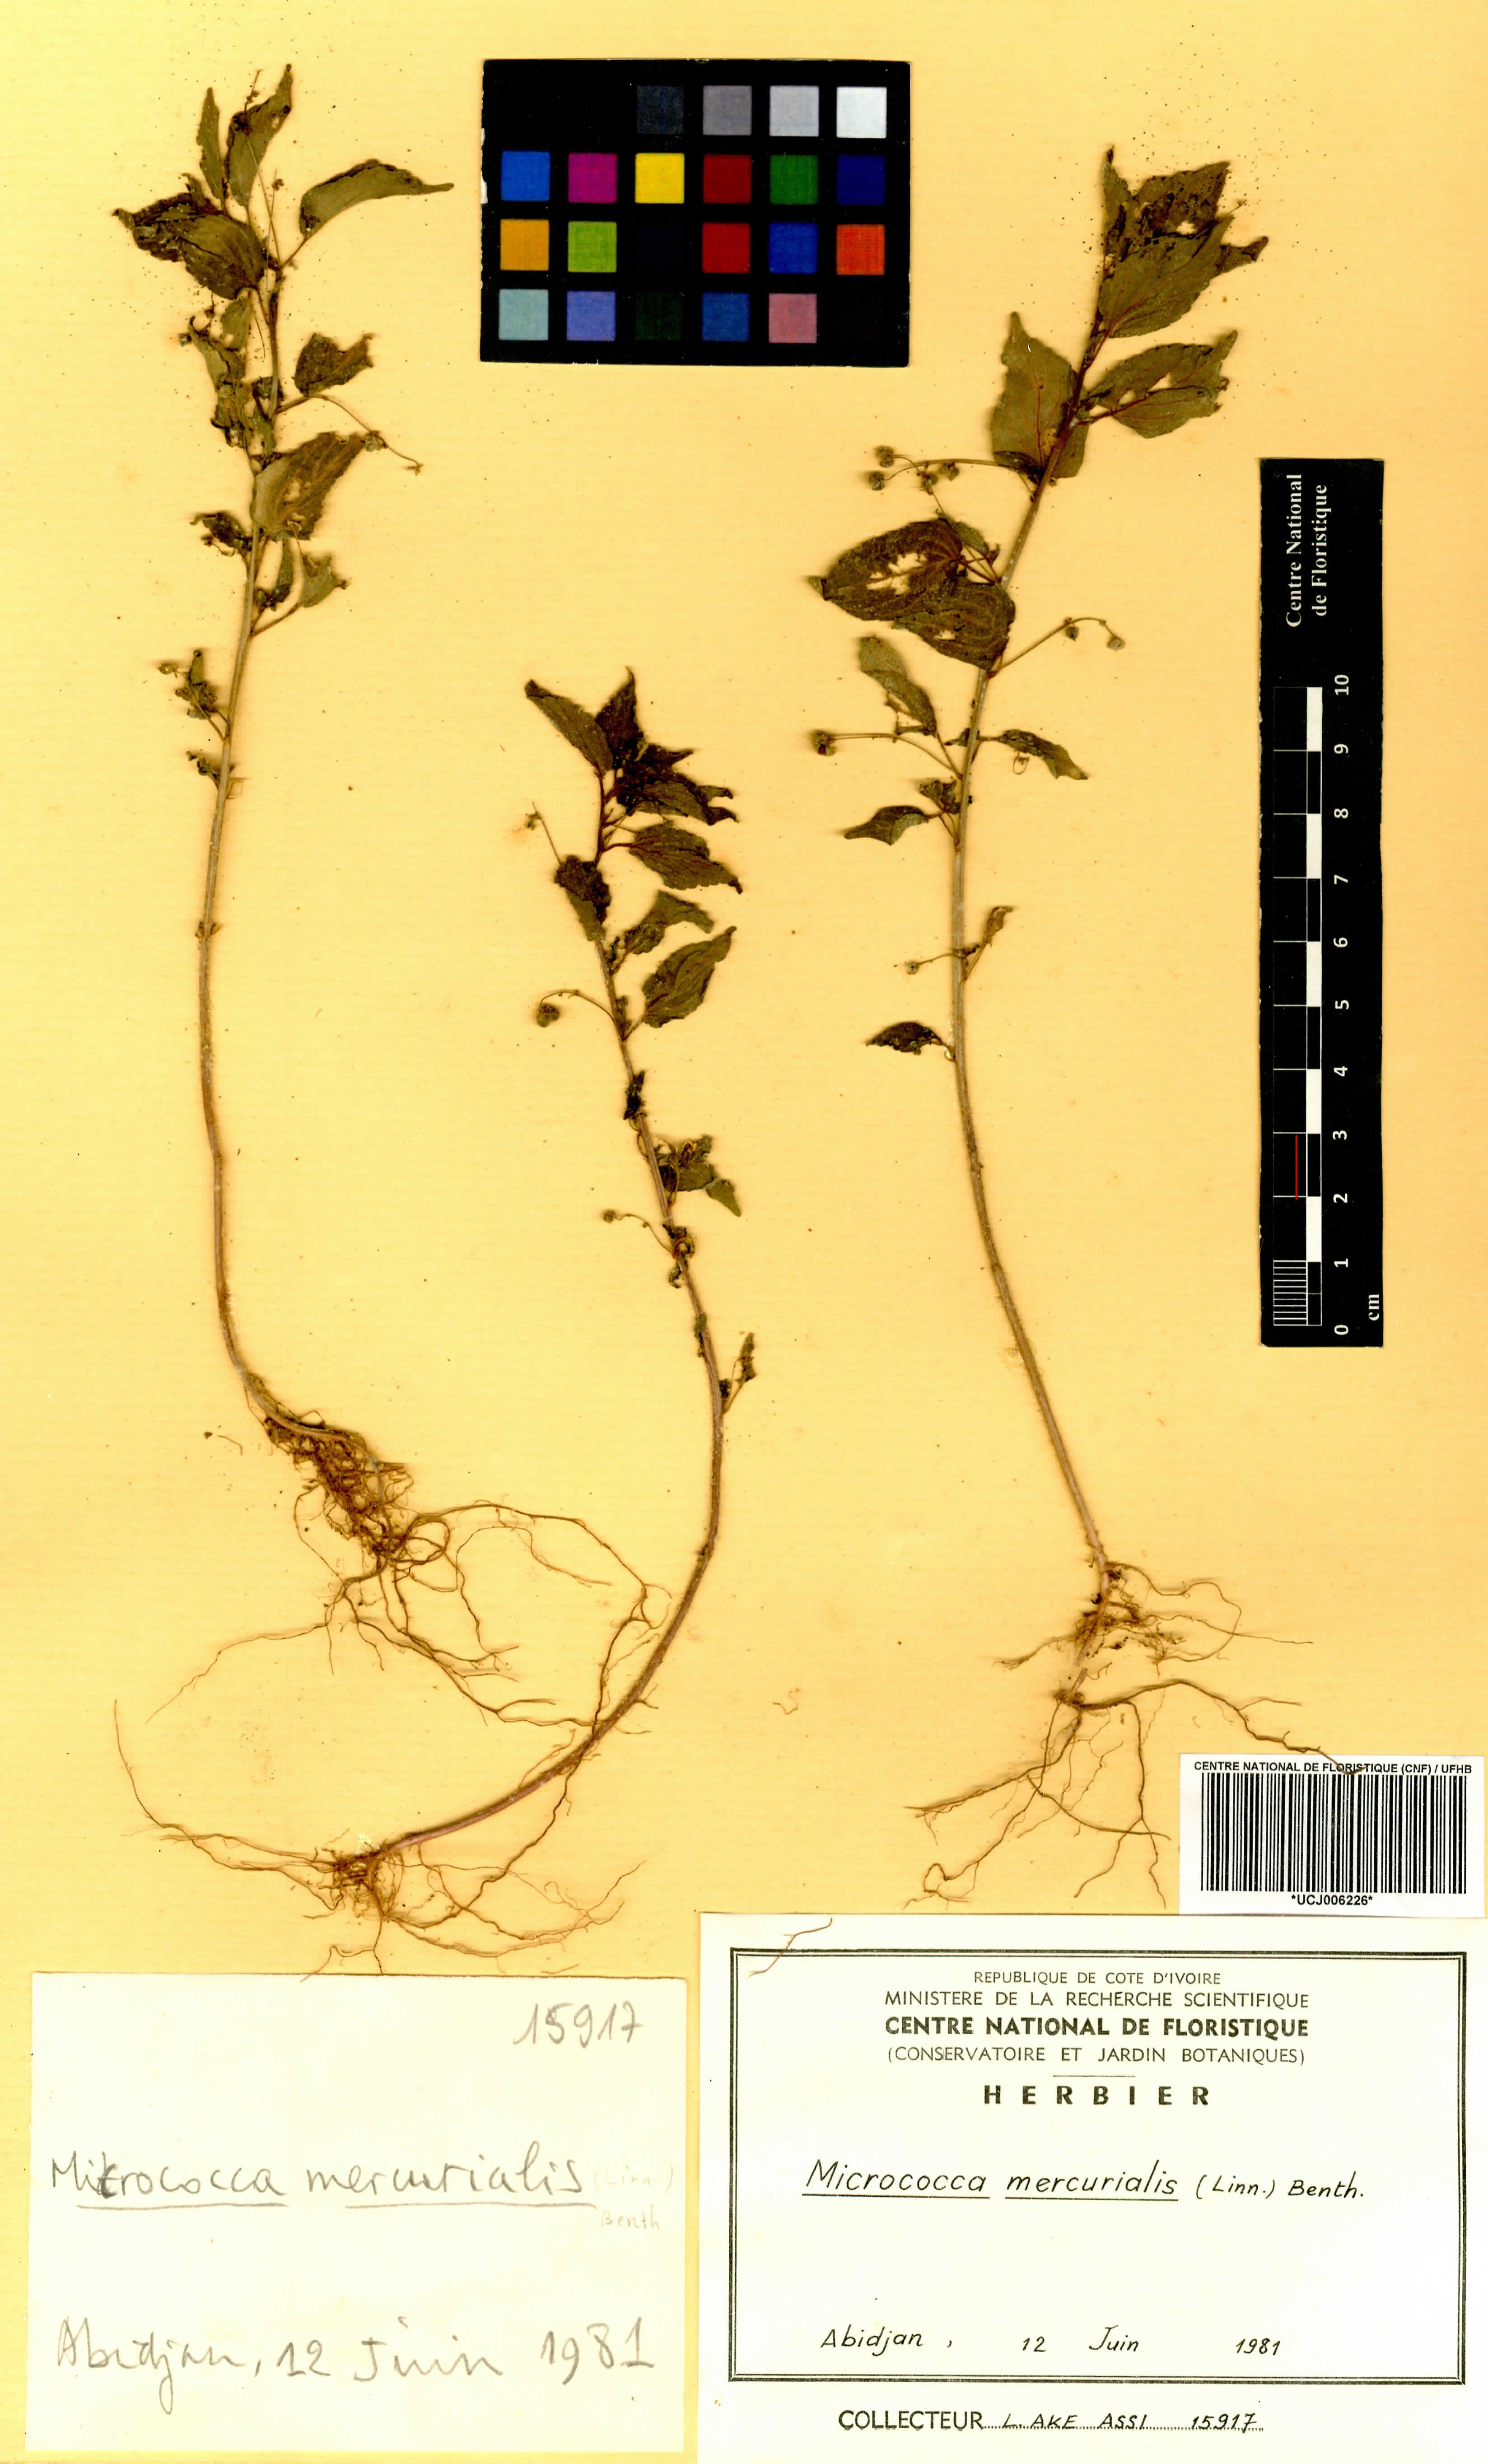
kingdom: Plantae
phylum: Tracheophyta
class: Magnoliopsida
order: Malpighiales
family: Euphorbiaceae
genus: Micrococca
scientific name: Micrococca mercurialis
